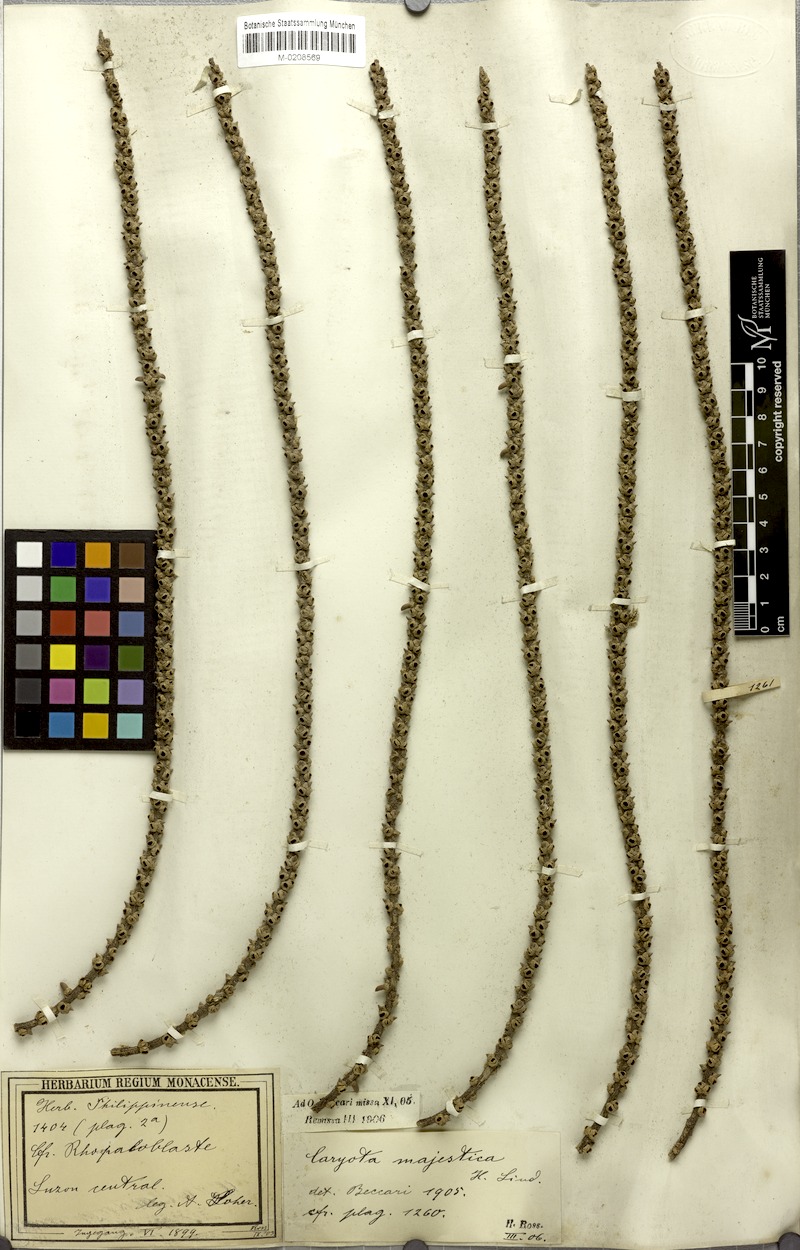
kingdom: Plantae
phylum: Tracheophyta
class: Liliopsida
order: Arecales
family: Arecaceae
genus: Caryota
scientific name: Caryota maxima
